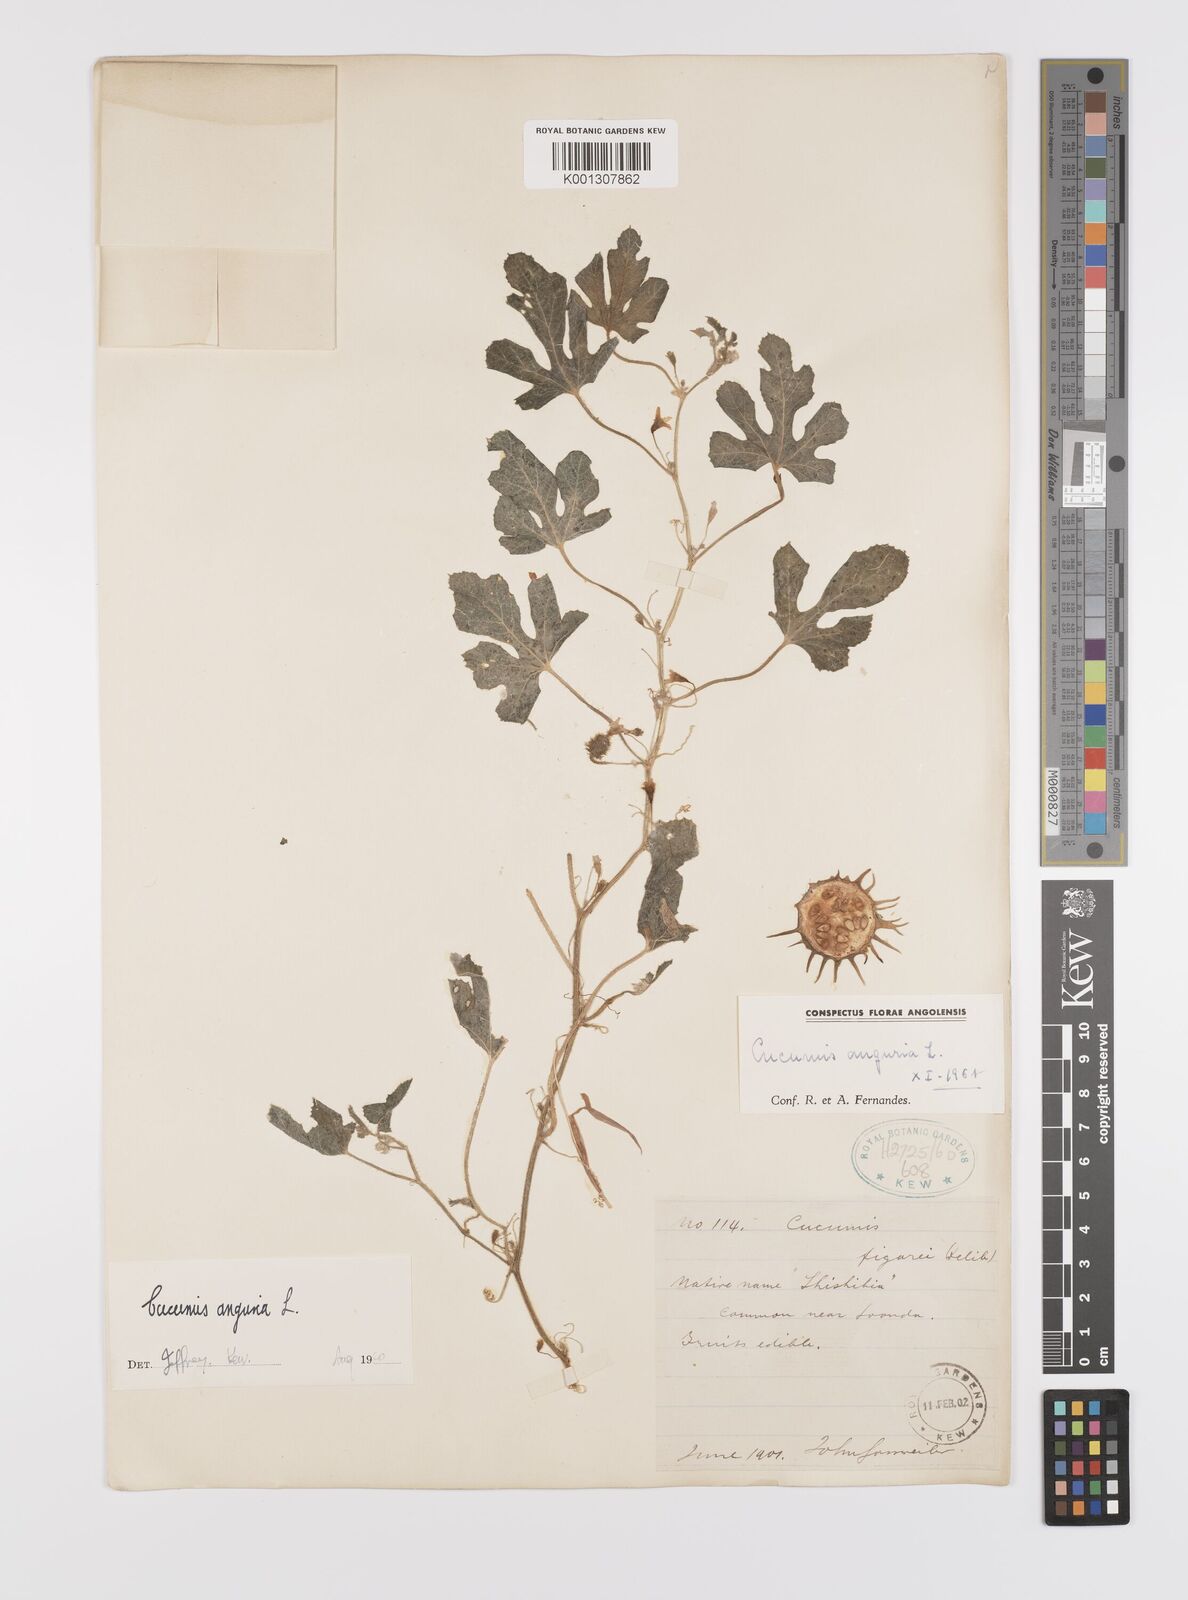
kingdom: Plantae
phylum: Tracheophyta
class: Magnoliopsida
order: Cucurbitales
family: Cucurbitaceae
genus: Cucumis
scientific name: Cucumis anguria
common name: West indian gherkin
